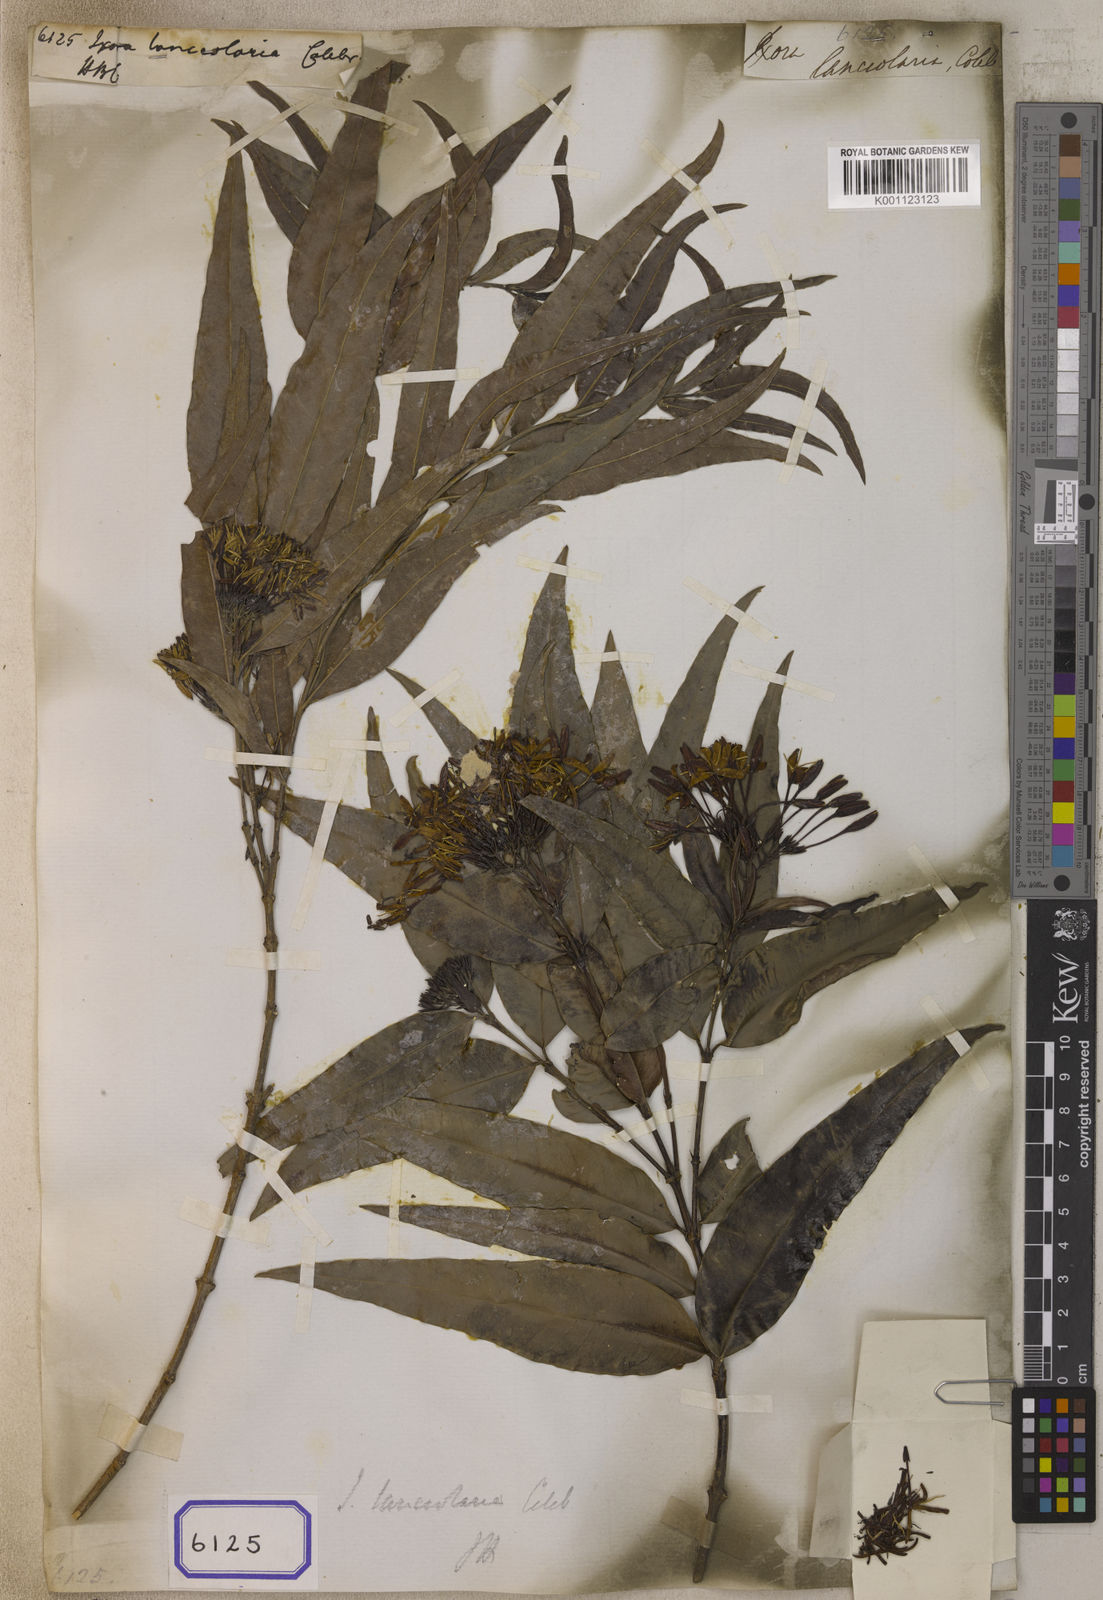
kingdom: Plantae
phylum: Tracheophyta
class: Magnoliopsida
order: Gentianales
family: Rubiaceae
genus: Ixora
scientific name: Ixora malabarica
